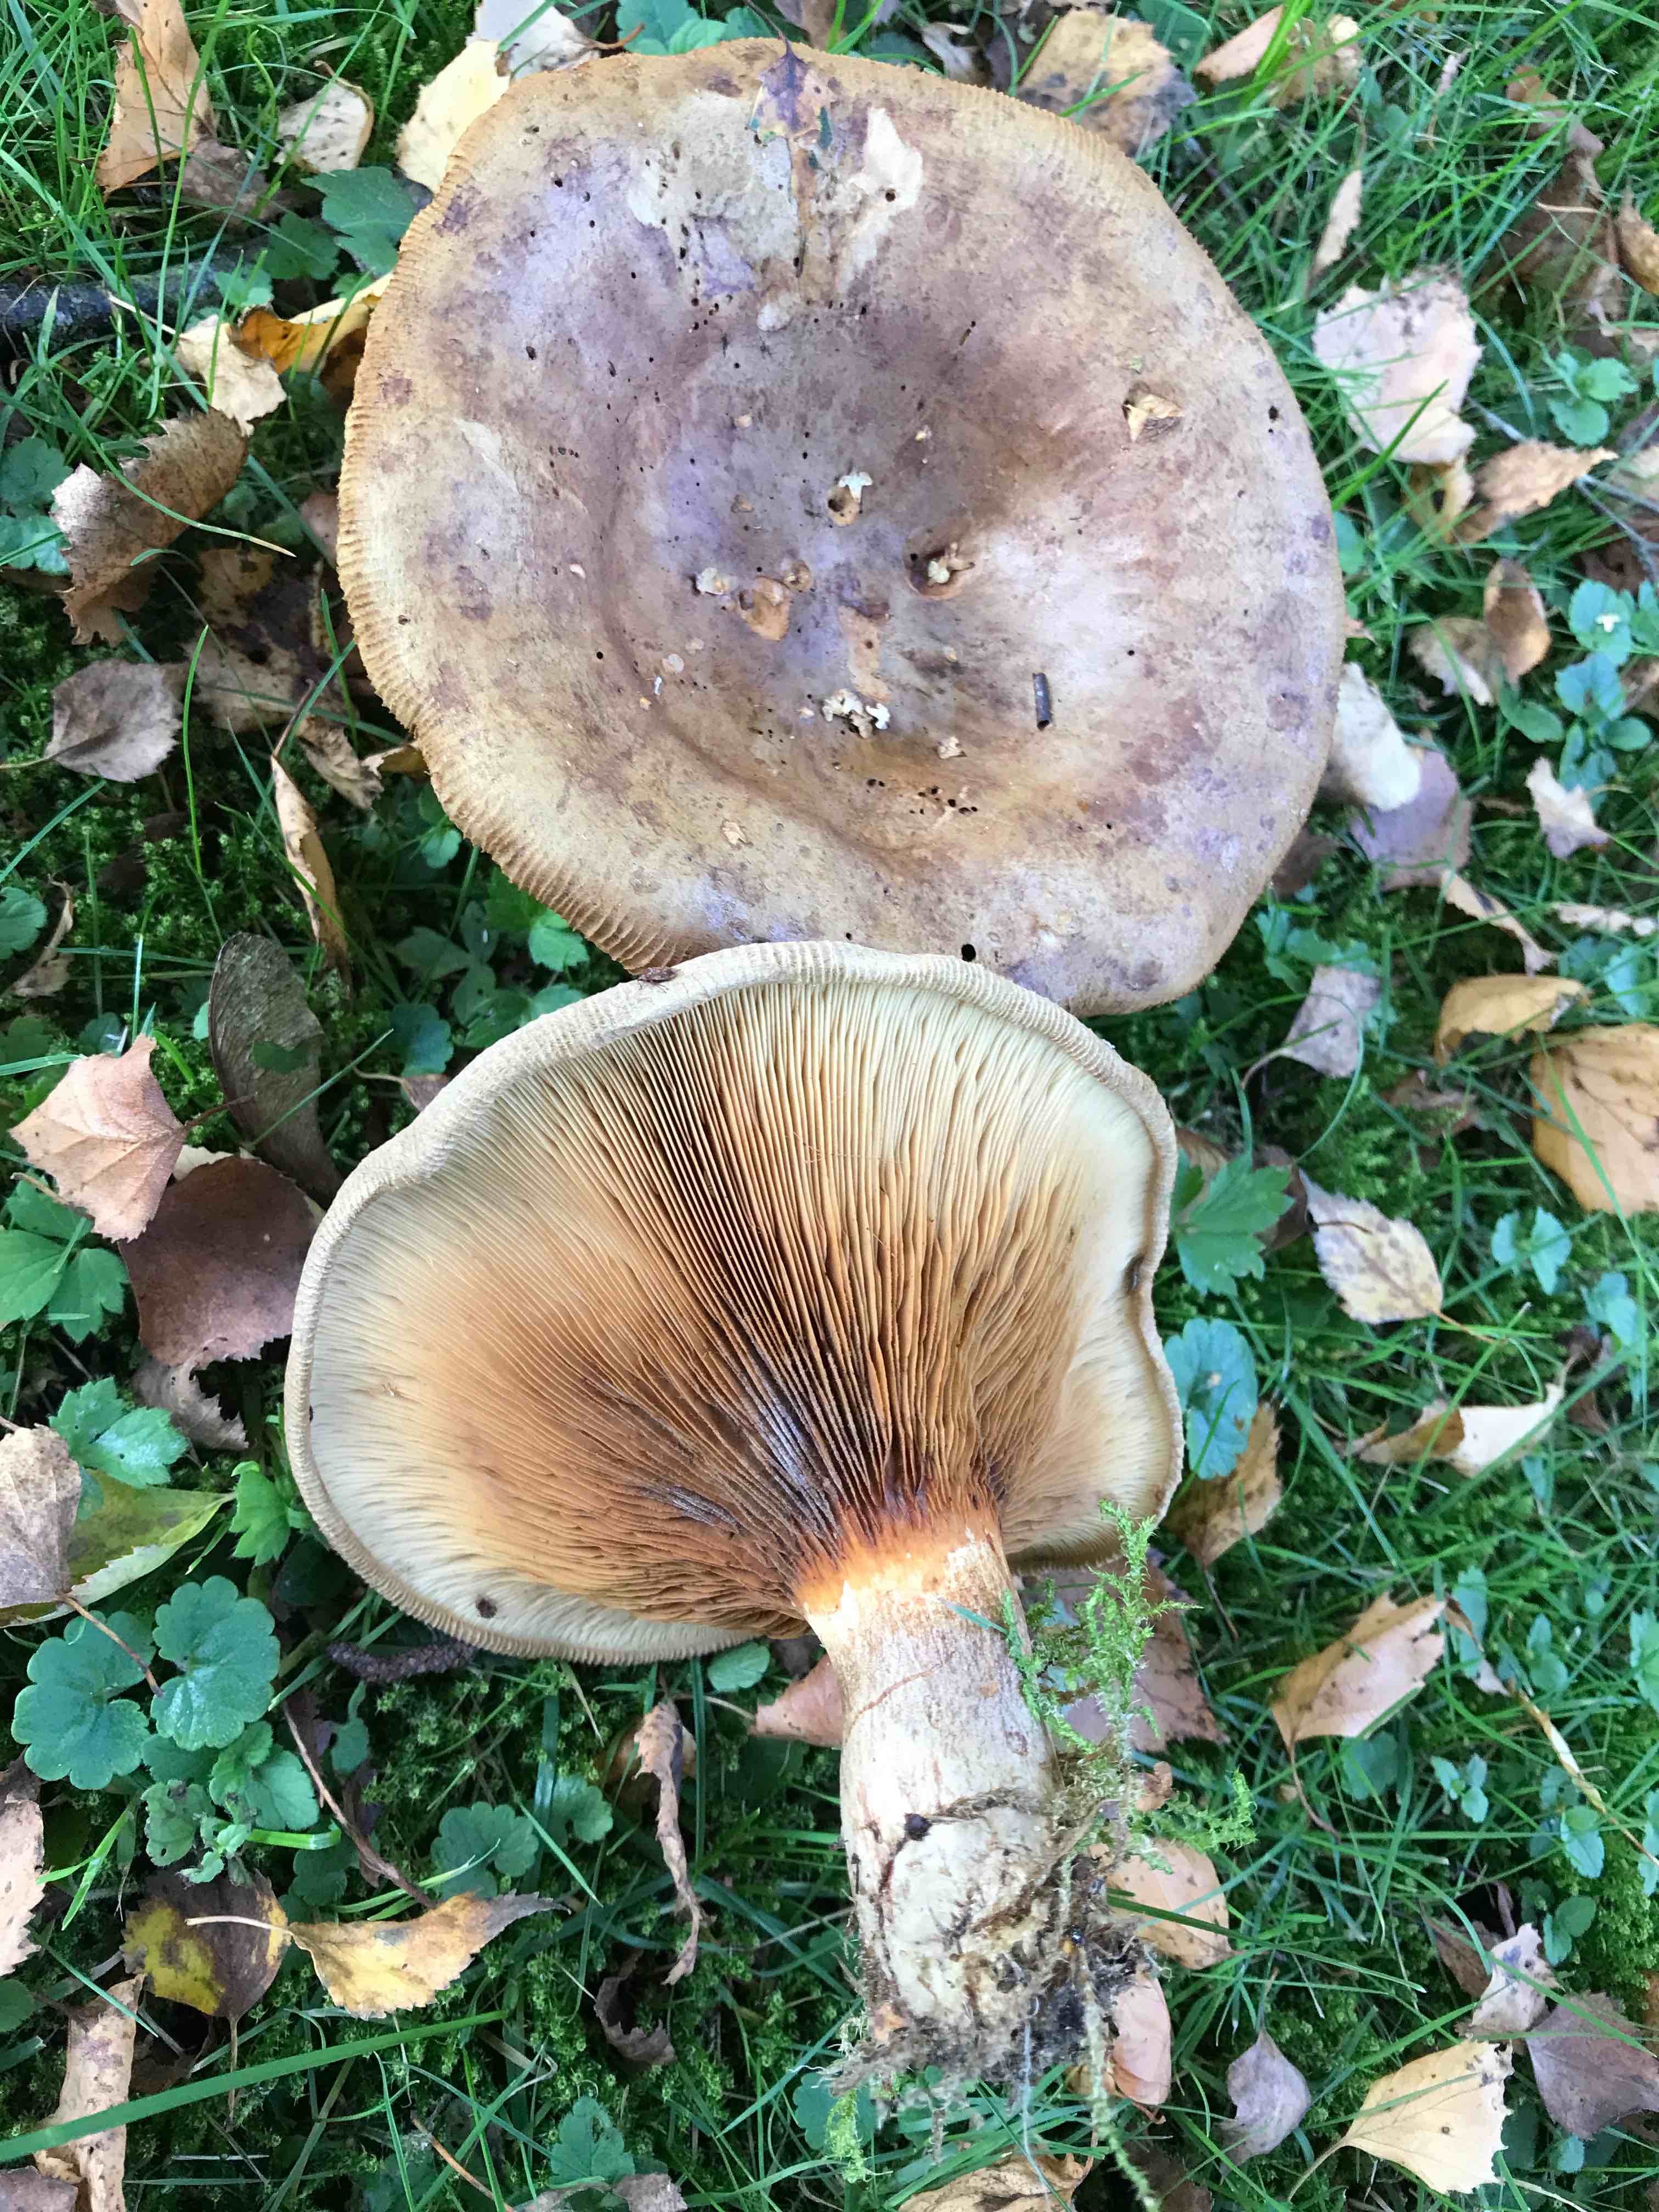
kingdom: Fungi
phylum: Basidiomycota
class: Agaricomycetes
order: Boletales
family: Paxillaceae
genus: Paxillus
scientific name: Paxillus involutus
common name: almindelig netbladhat
